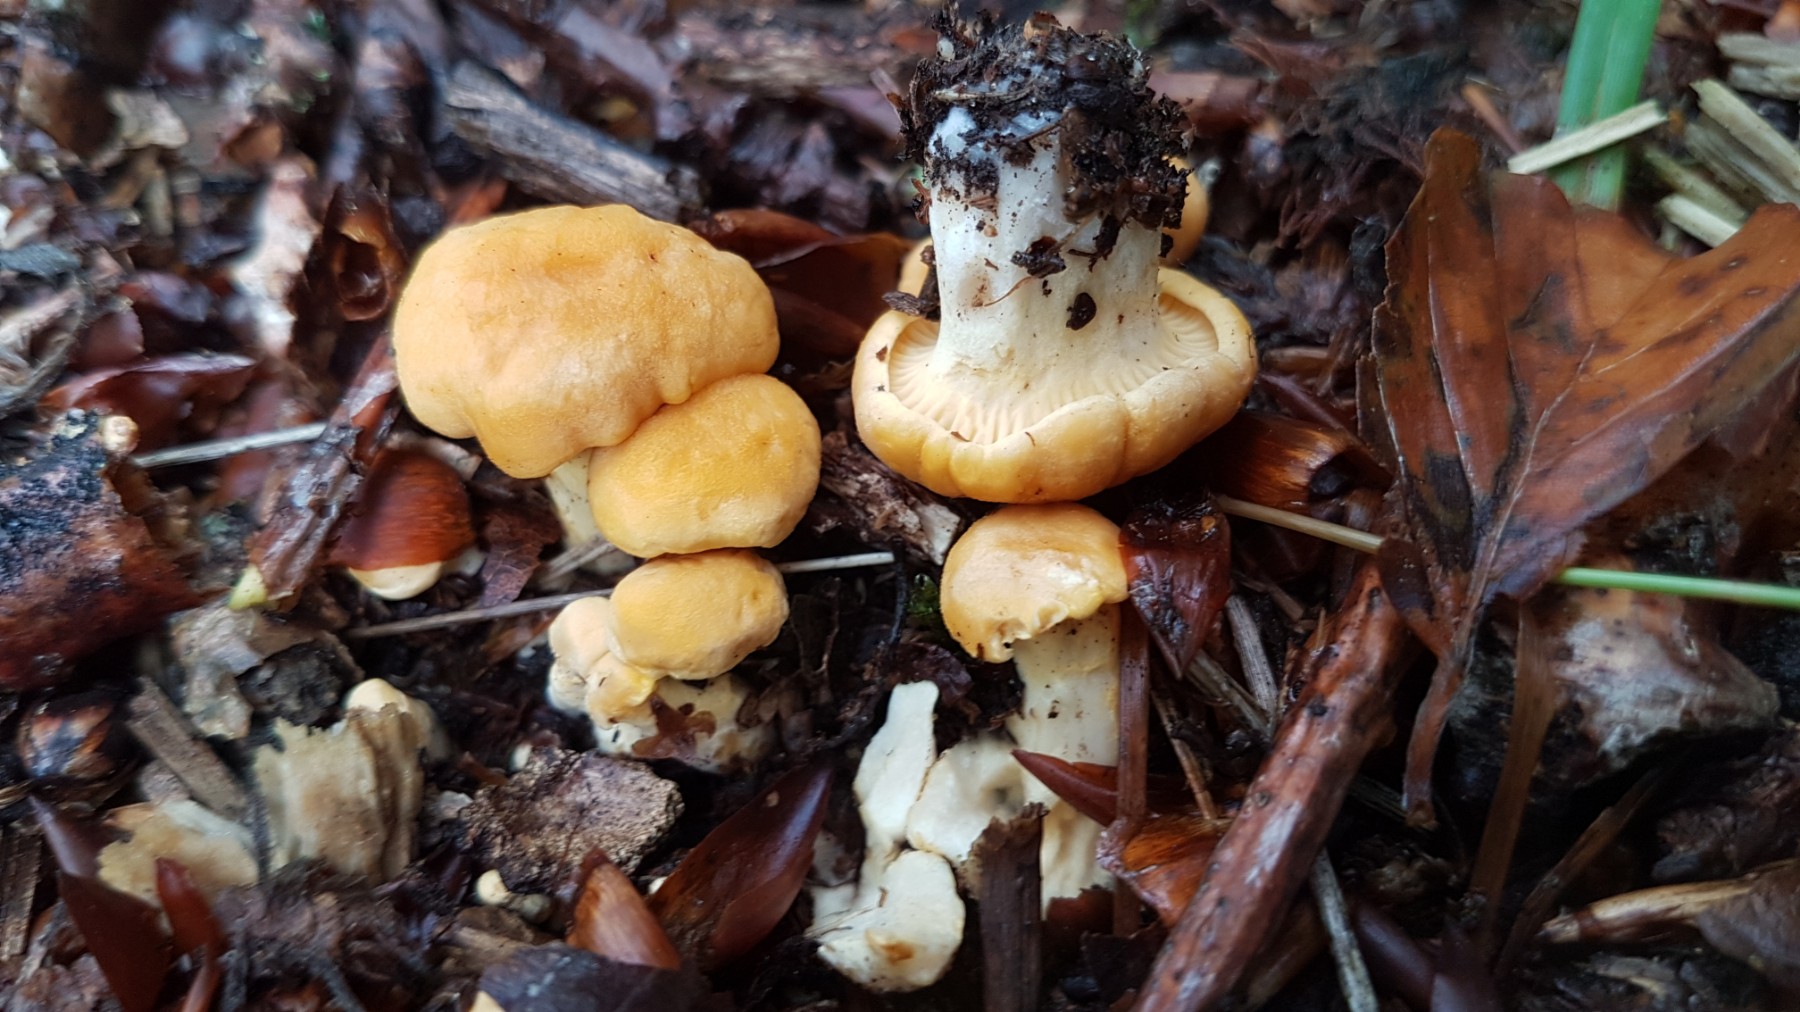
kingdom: Fungi
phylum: Basidiomycota
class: Agaricomycetes
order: Cantharellales
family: Hydnaceae
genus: Cantharellus
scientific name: Cantharellus cibarius
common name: almindelig kantarel
